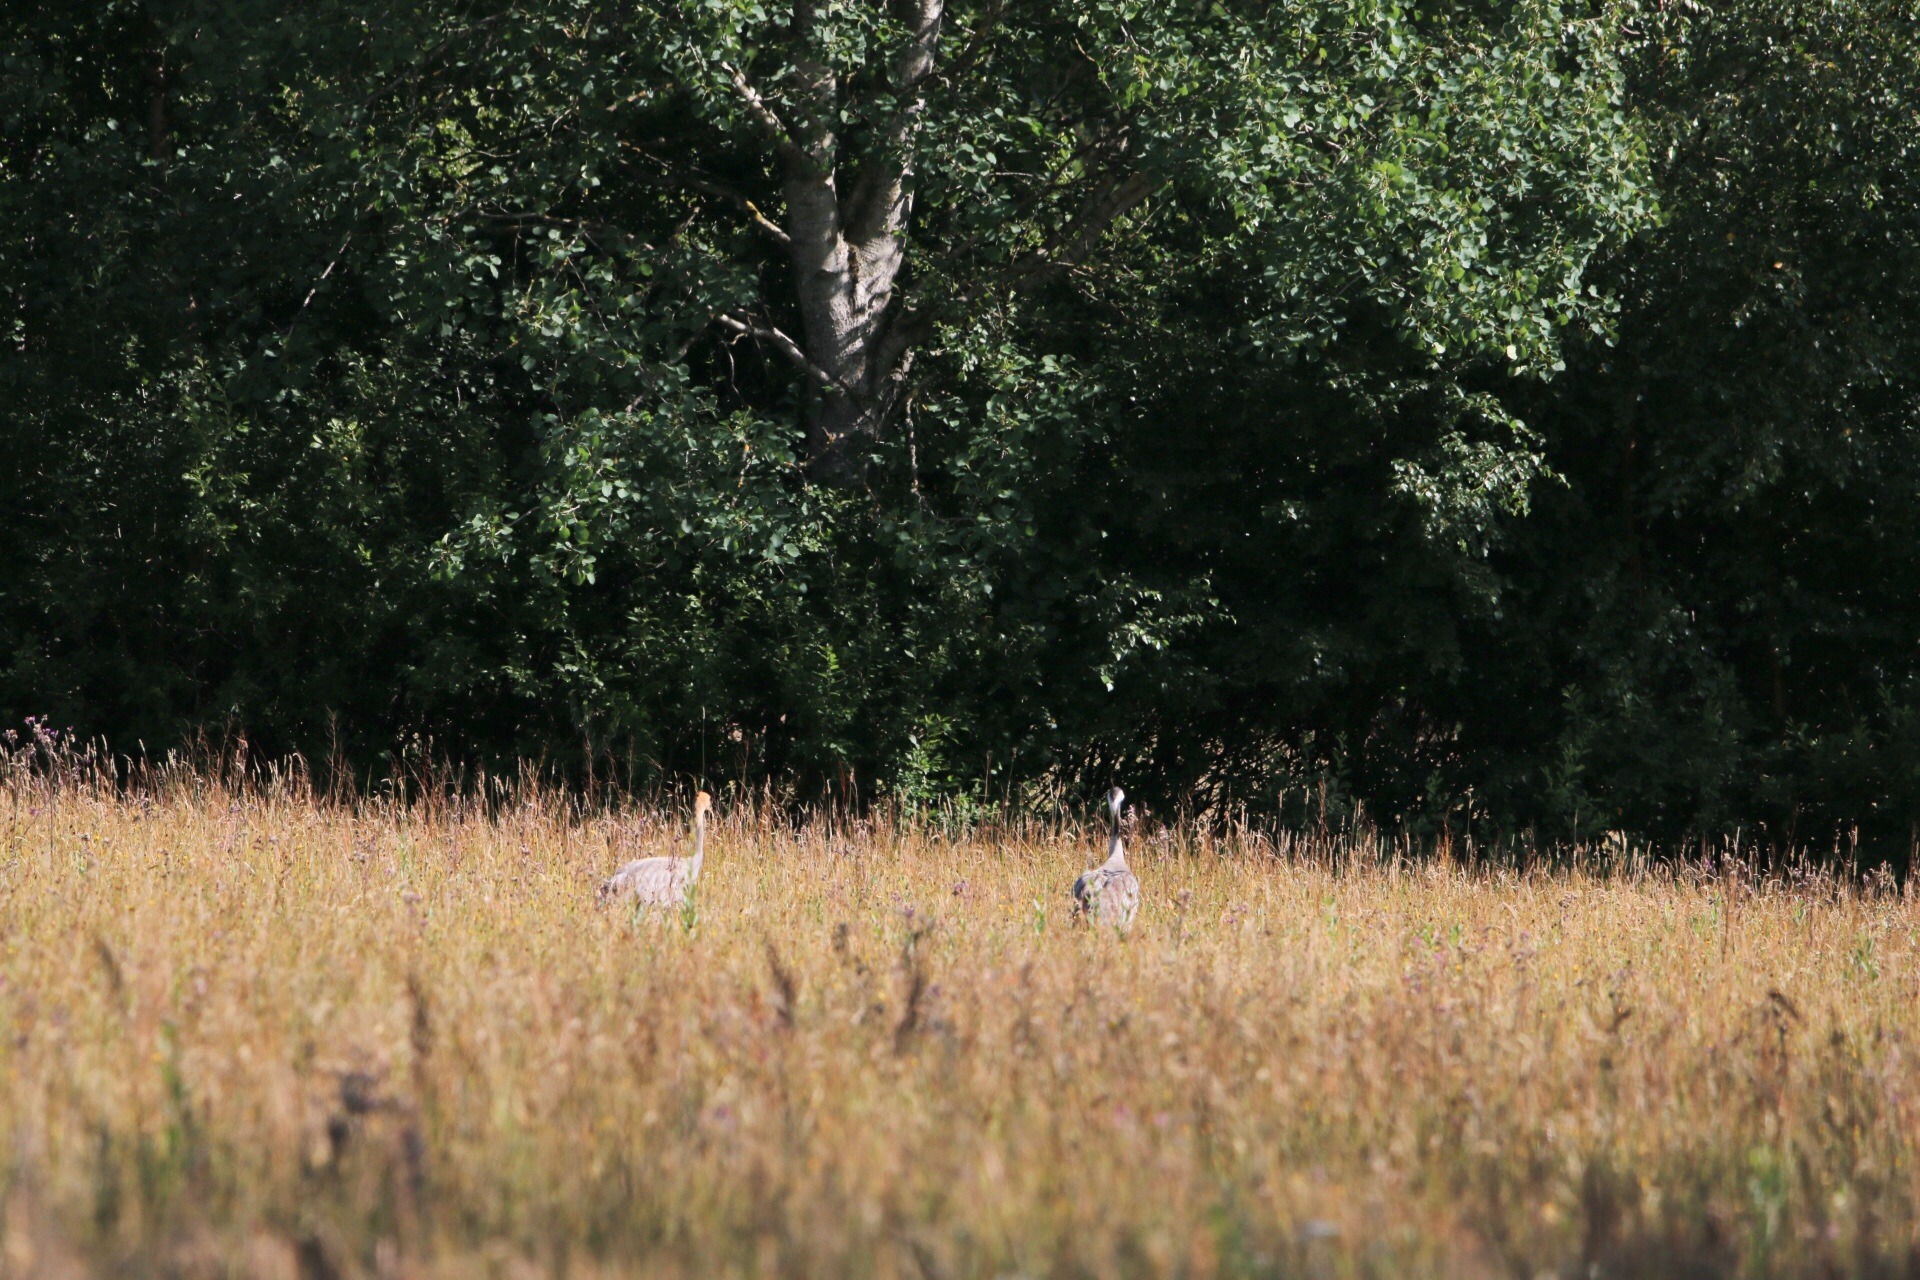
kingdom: Animalia
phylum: Chordata
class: Aves
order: Gruiformes
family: Gruidae
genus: Grus
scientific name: Grus grus
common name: Trane
